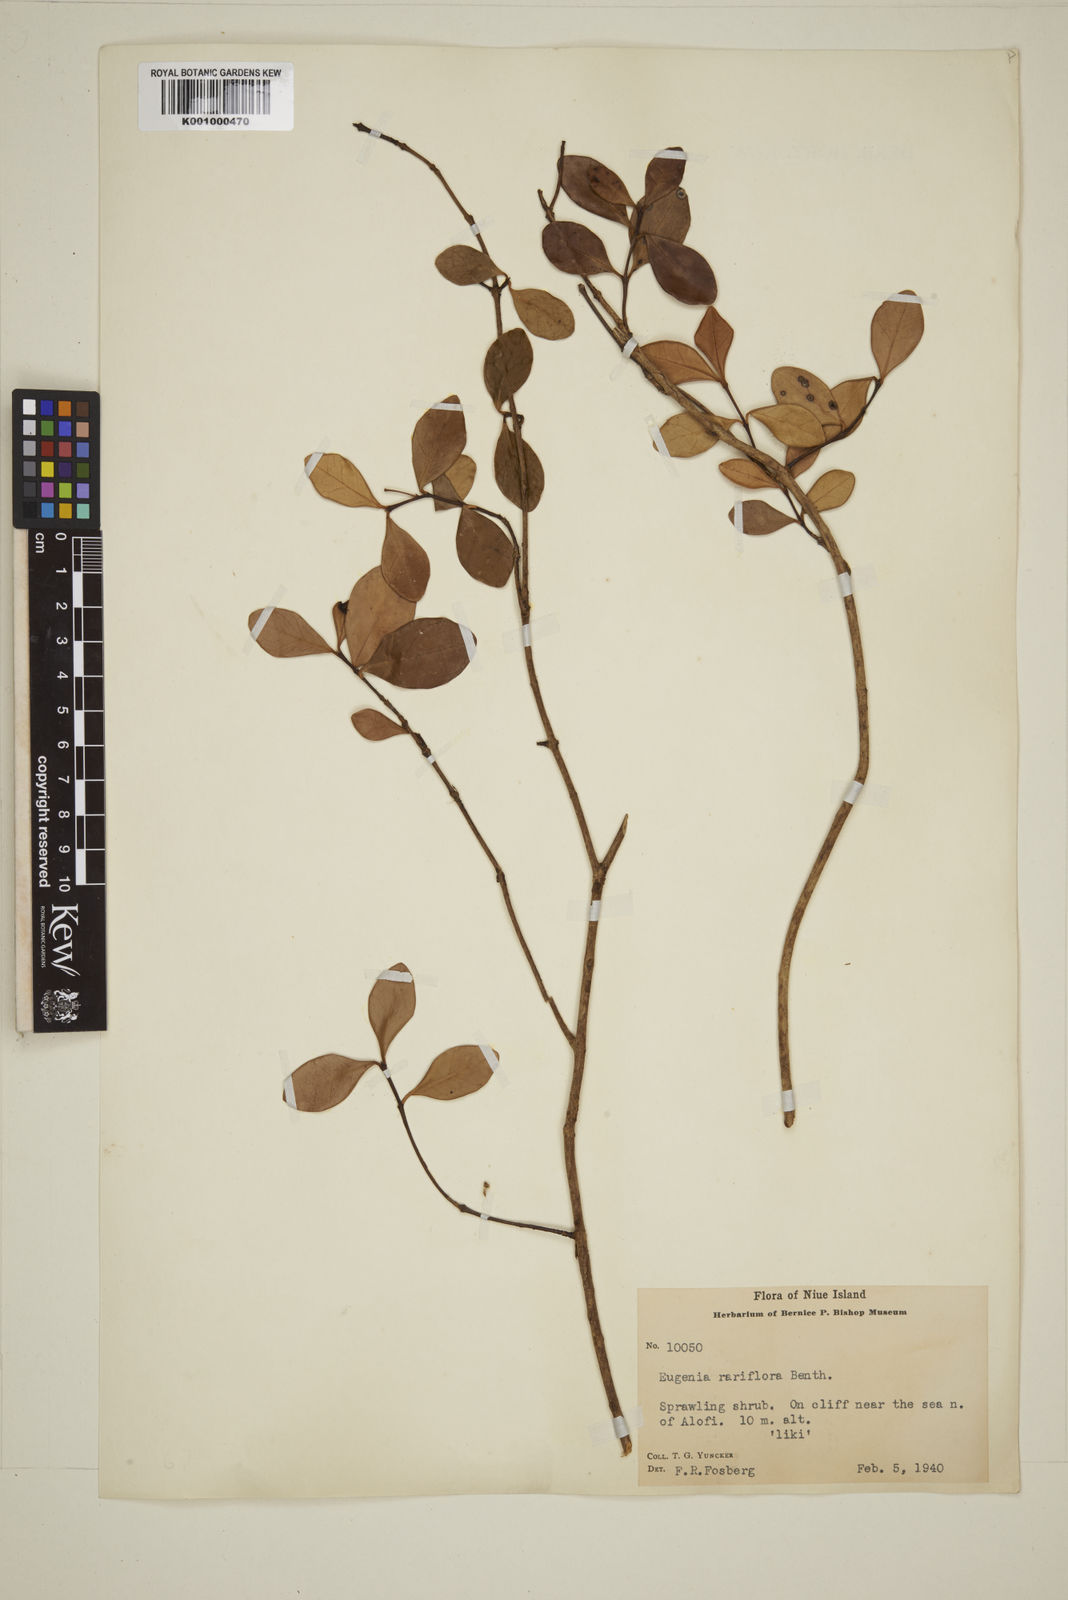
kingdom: Plantae
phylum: Tracheophyta
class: Magnoliopsida
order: Myrtales
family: Myrtaceae
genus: Eugenia
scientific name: Eugenia reinwardtiana
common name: Cedar bay-cherry
